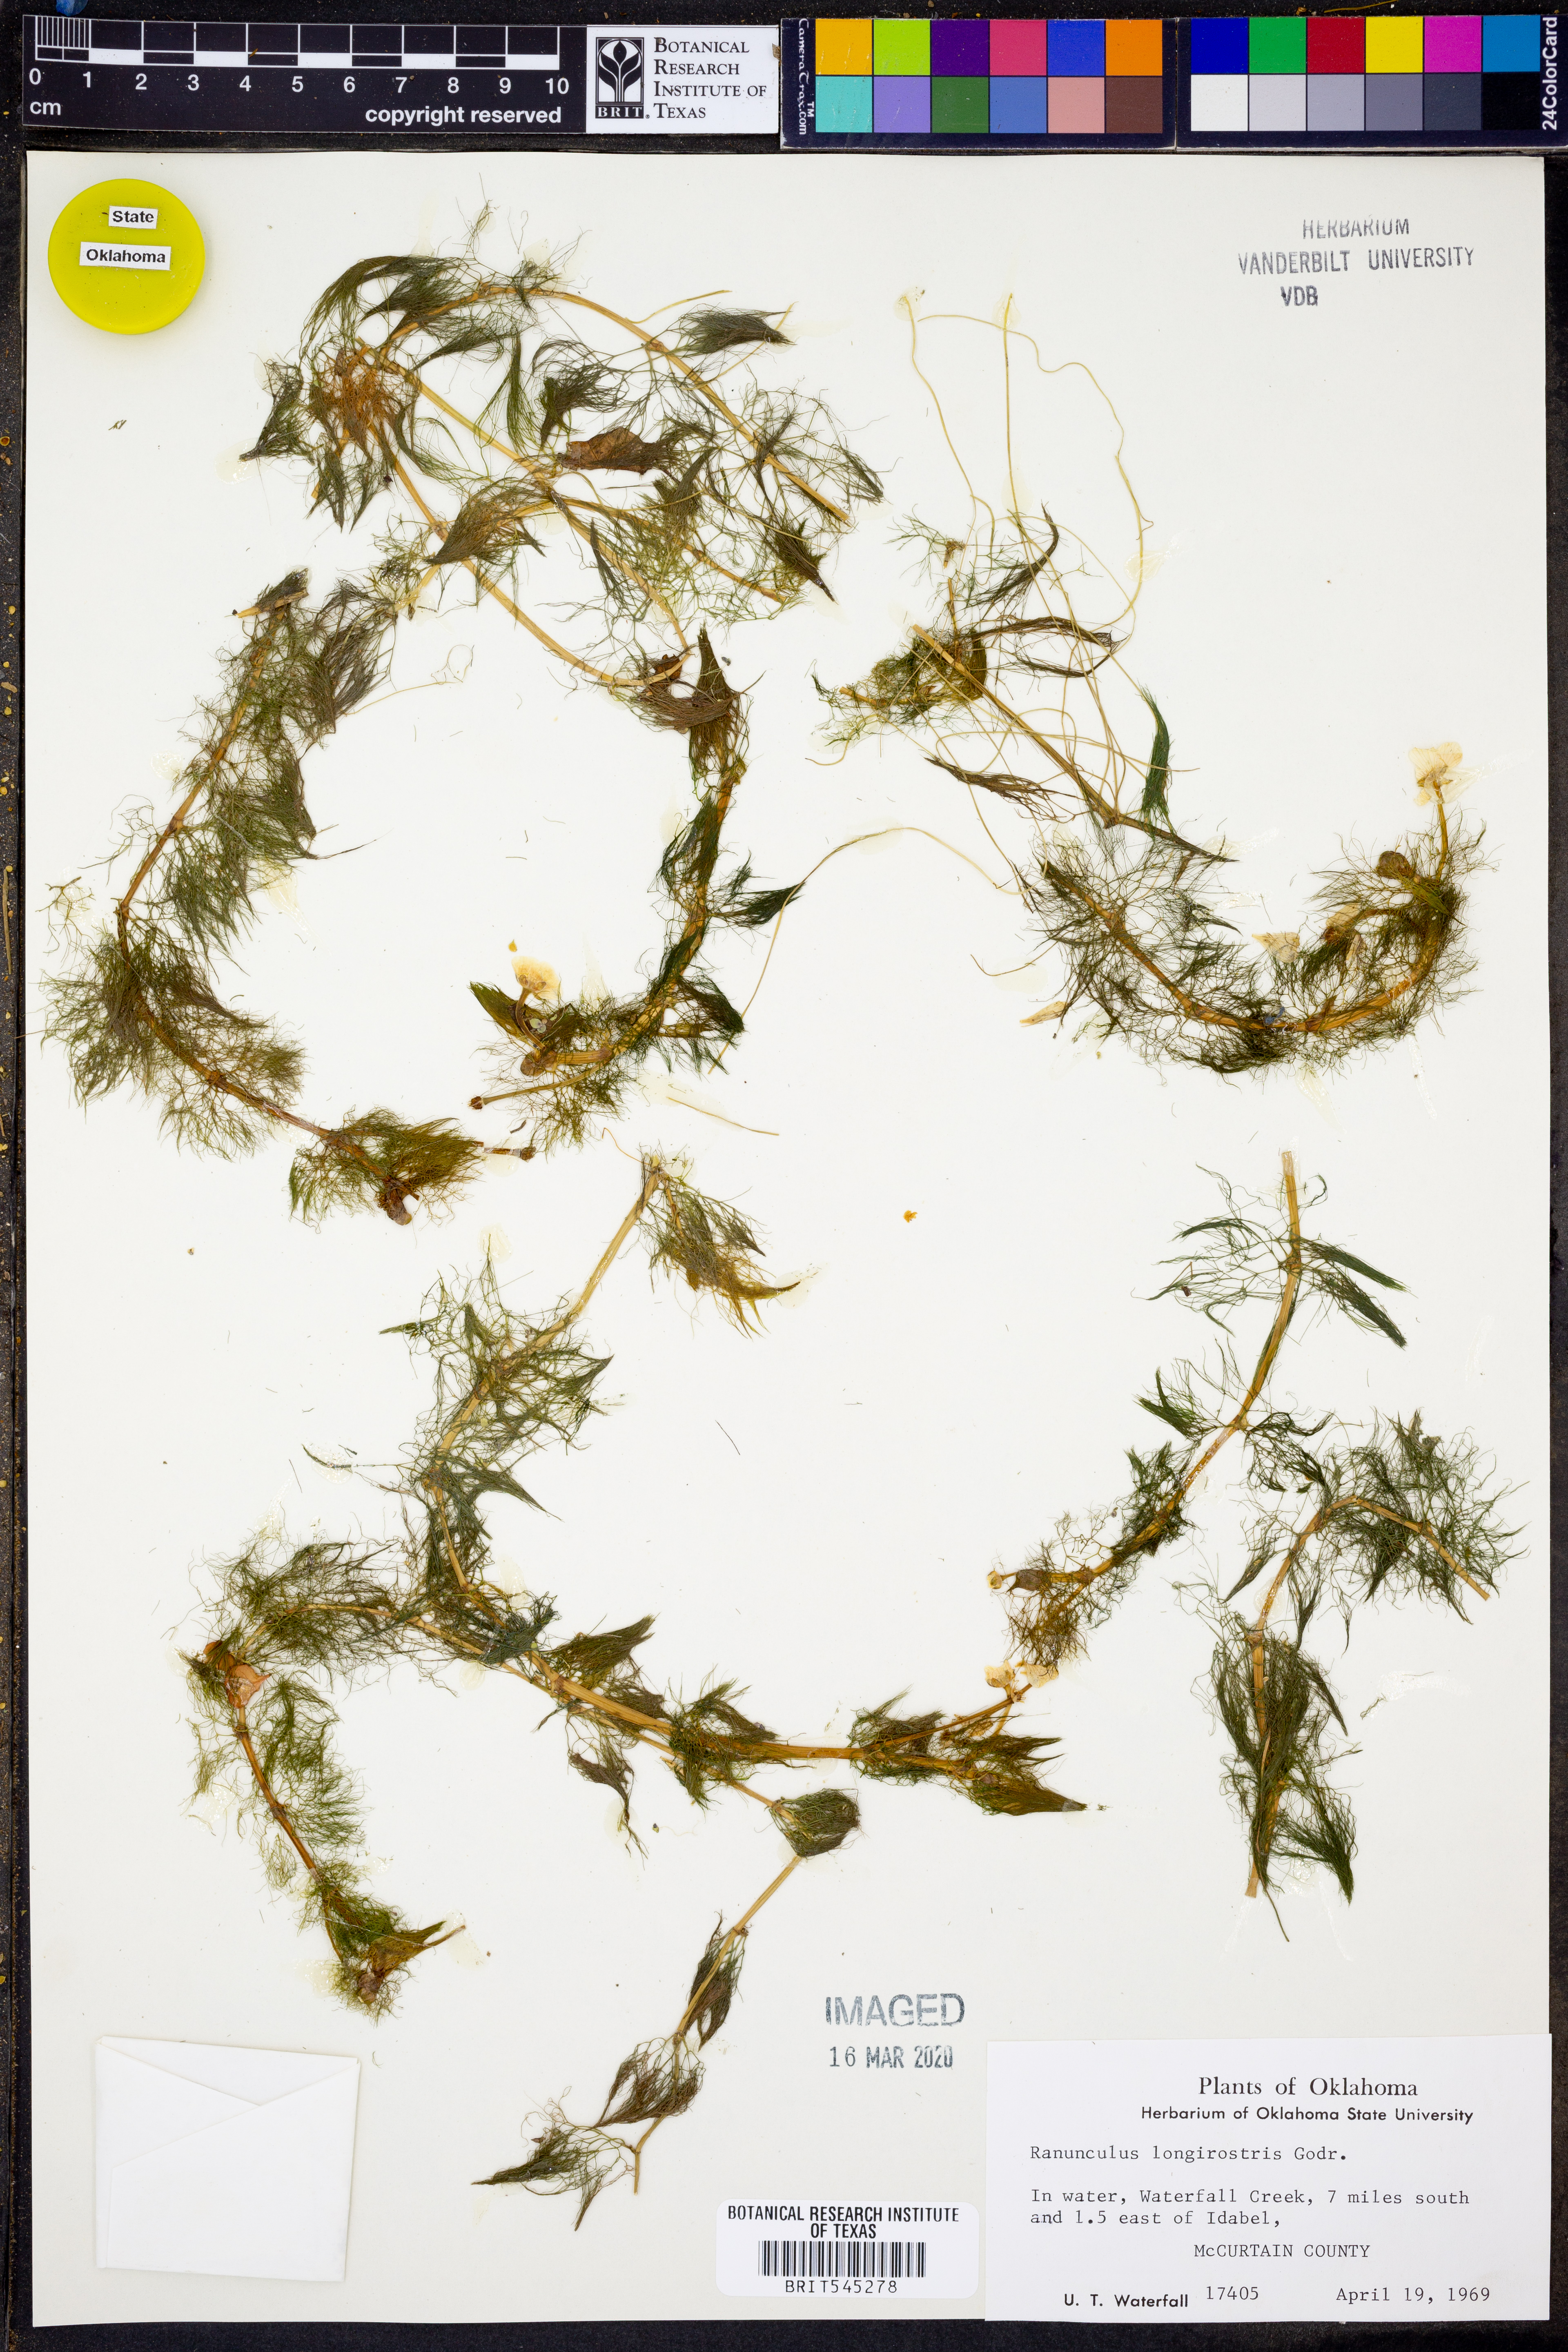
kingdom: Plantae
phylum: Tracheophyta
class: Magnoliopsida
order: Ranunculales
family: Ranunculaceae
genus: Ranunculus
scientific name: Ranunculus longirostris
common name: Curly white water-crowfoot
